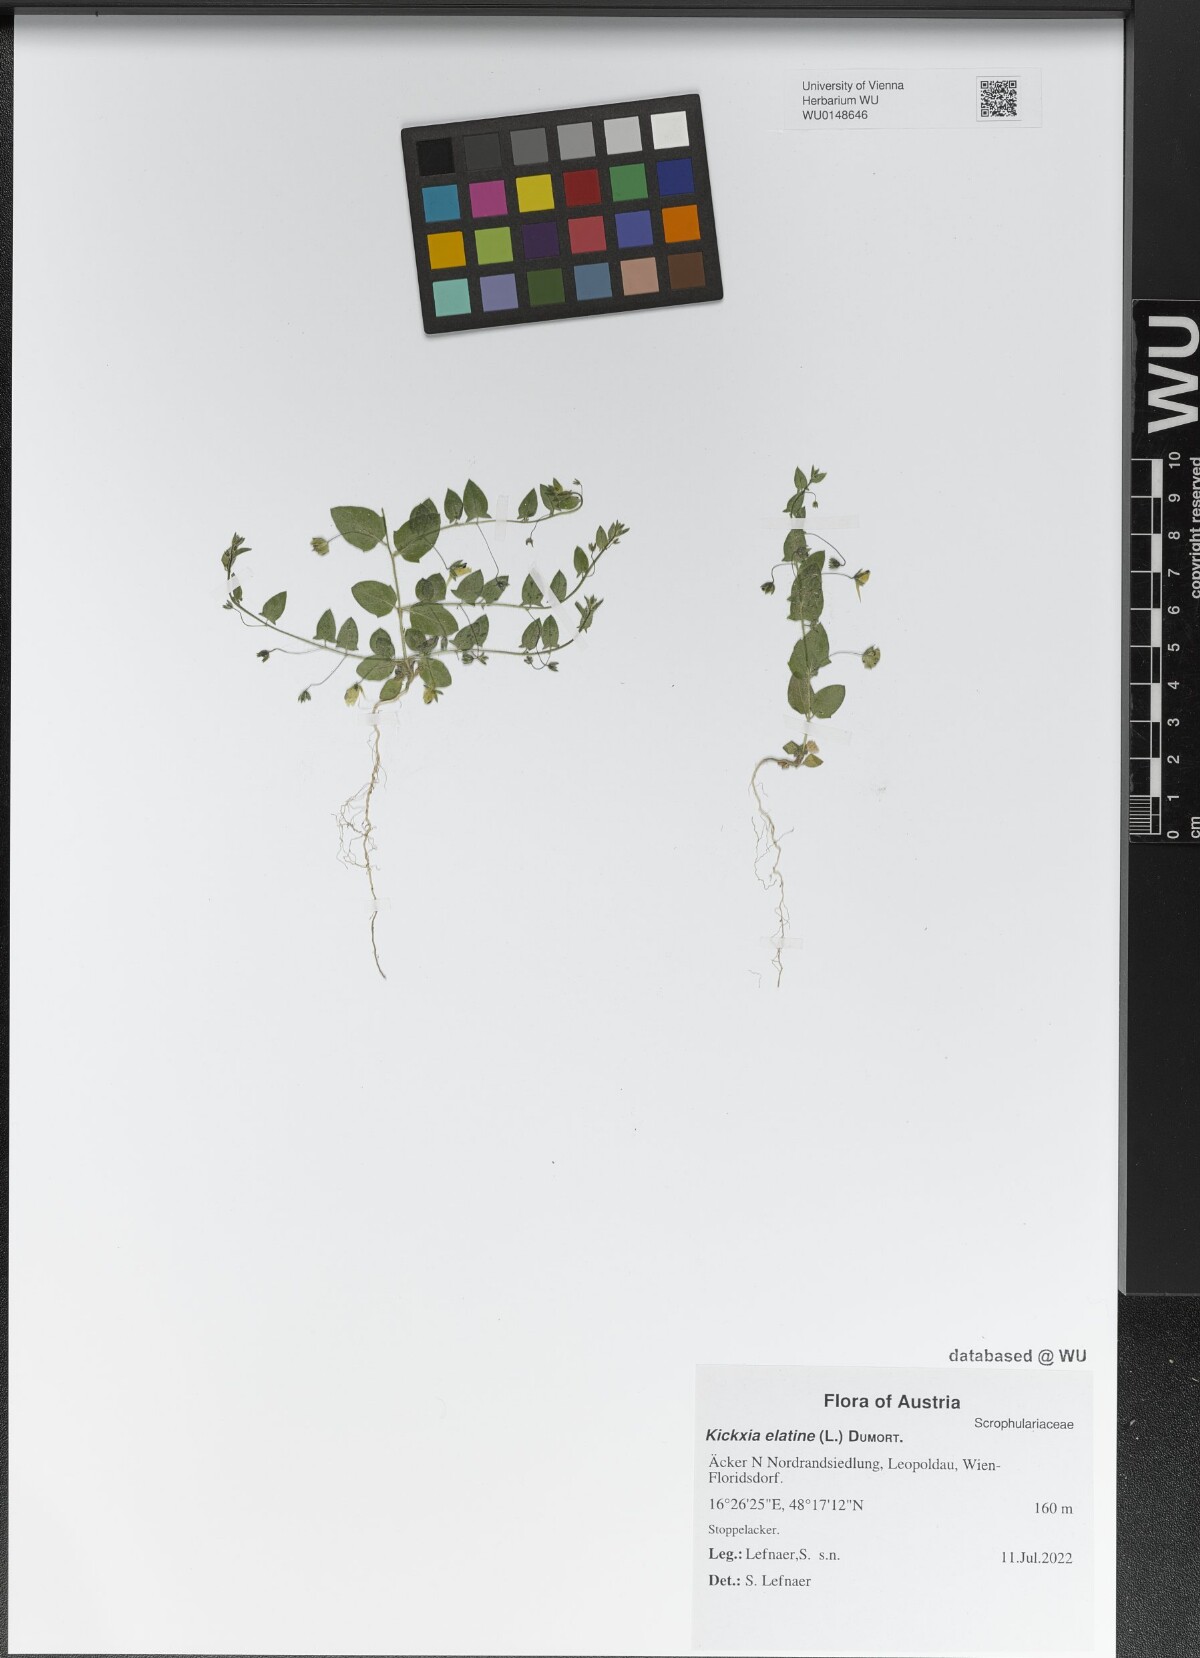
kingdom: Plantae
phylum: Tracheophyta
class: Magnoliopsida
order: Lamiales
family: Plantaginaceae
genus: Kickxia
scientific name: Kickxia elatine
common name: Sharp-leaved fluellen
